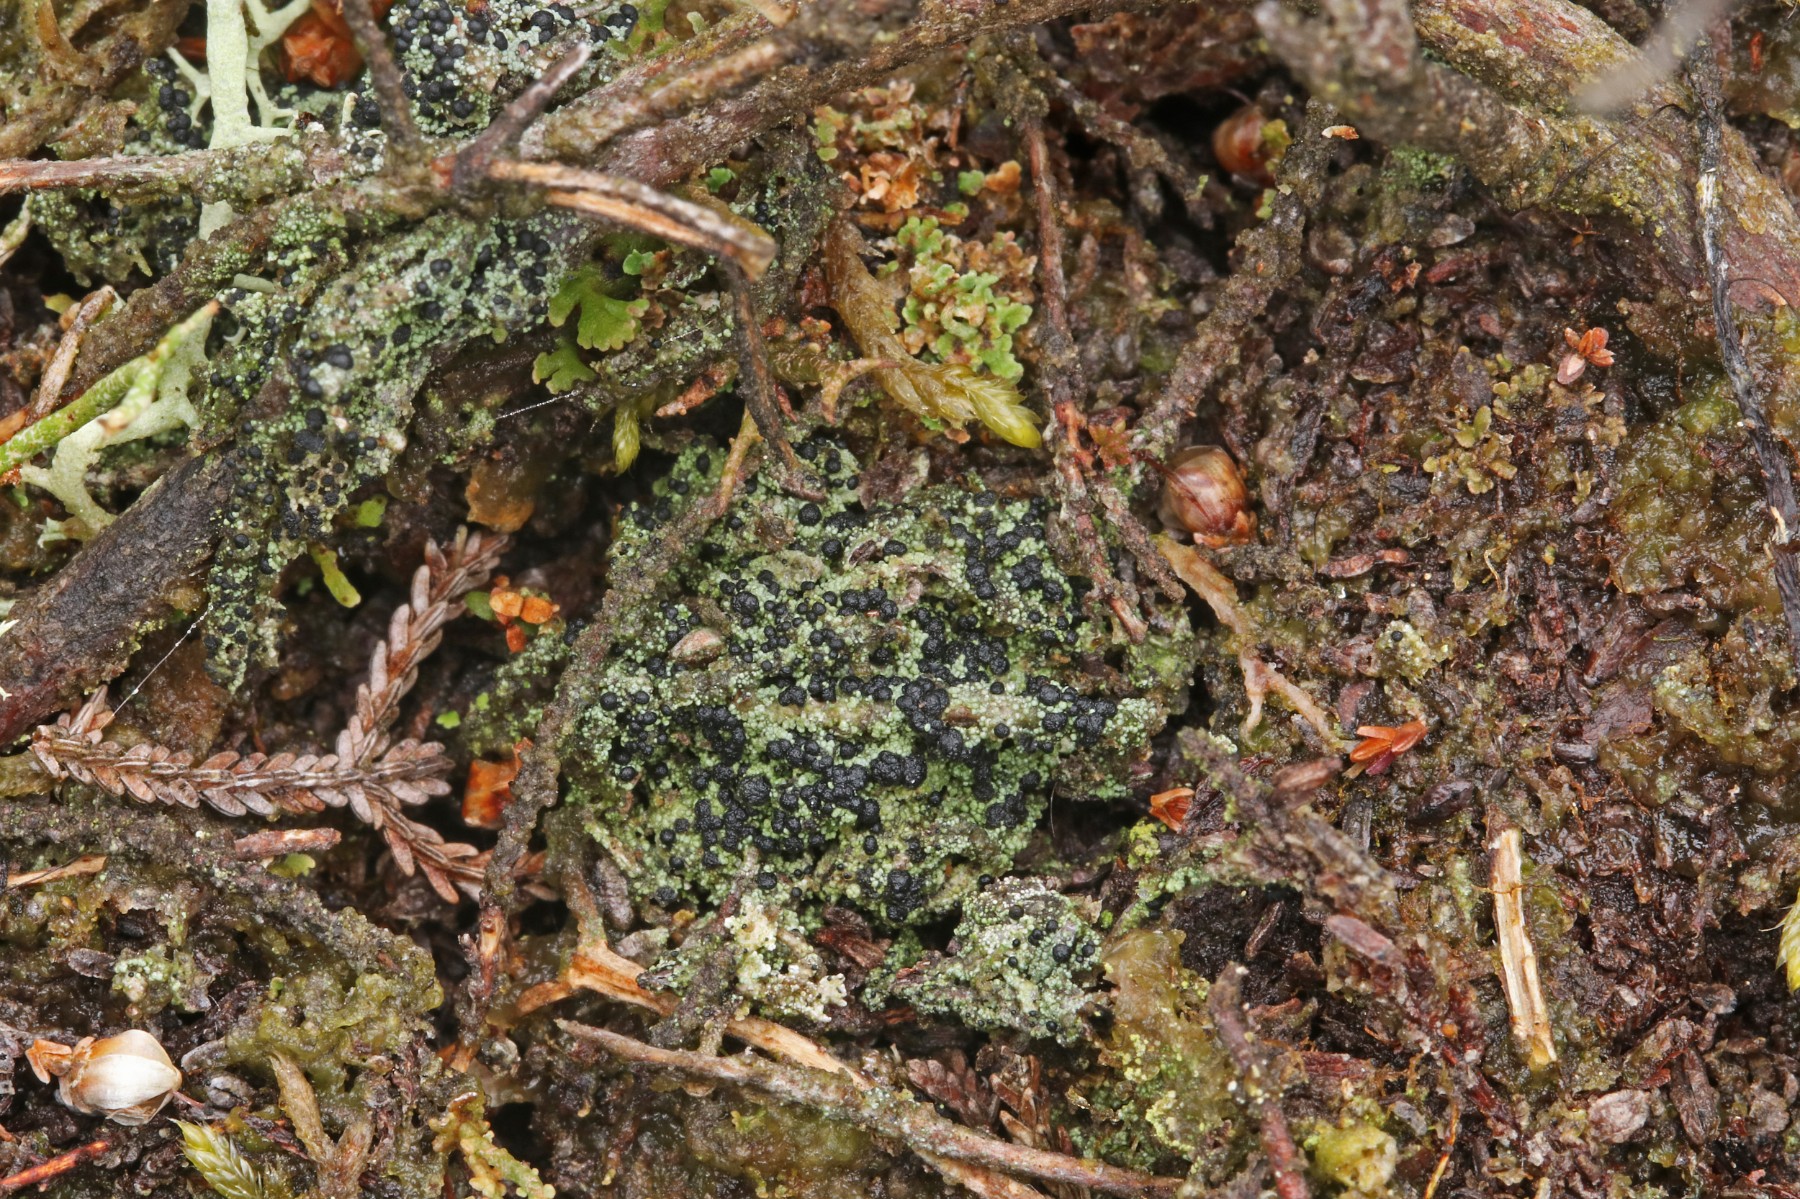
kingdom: Fungi
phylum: Ascomycota
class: Lecanoromycetes
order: Lecanorales
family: Byssolomataceae
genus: Micarea
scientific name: Micarea lignaria
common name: tørve-knaplav
